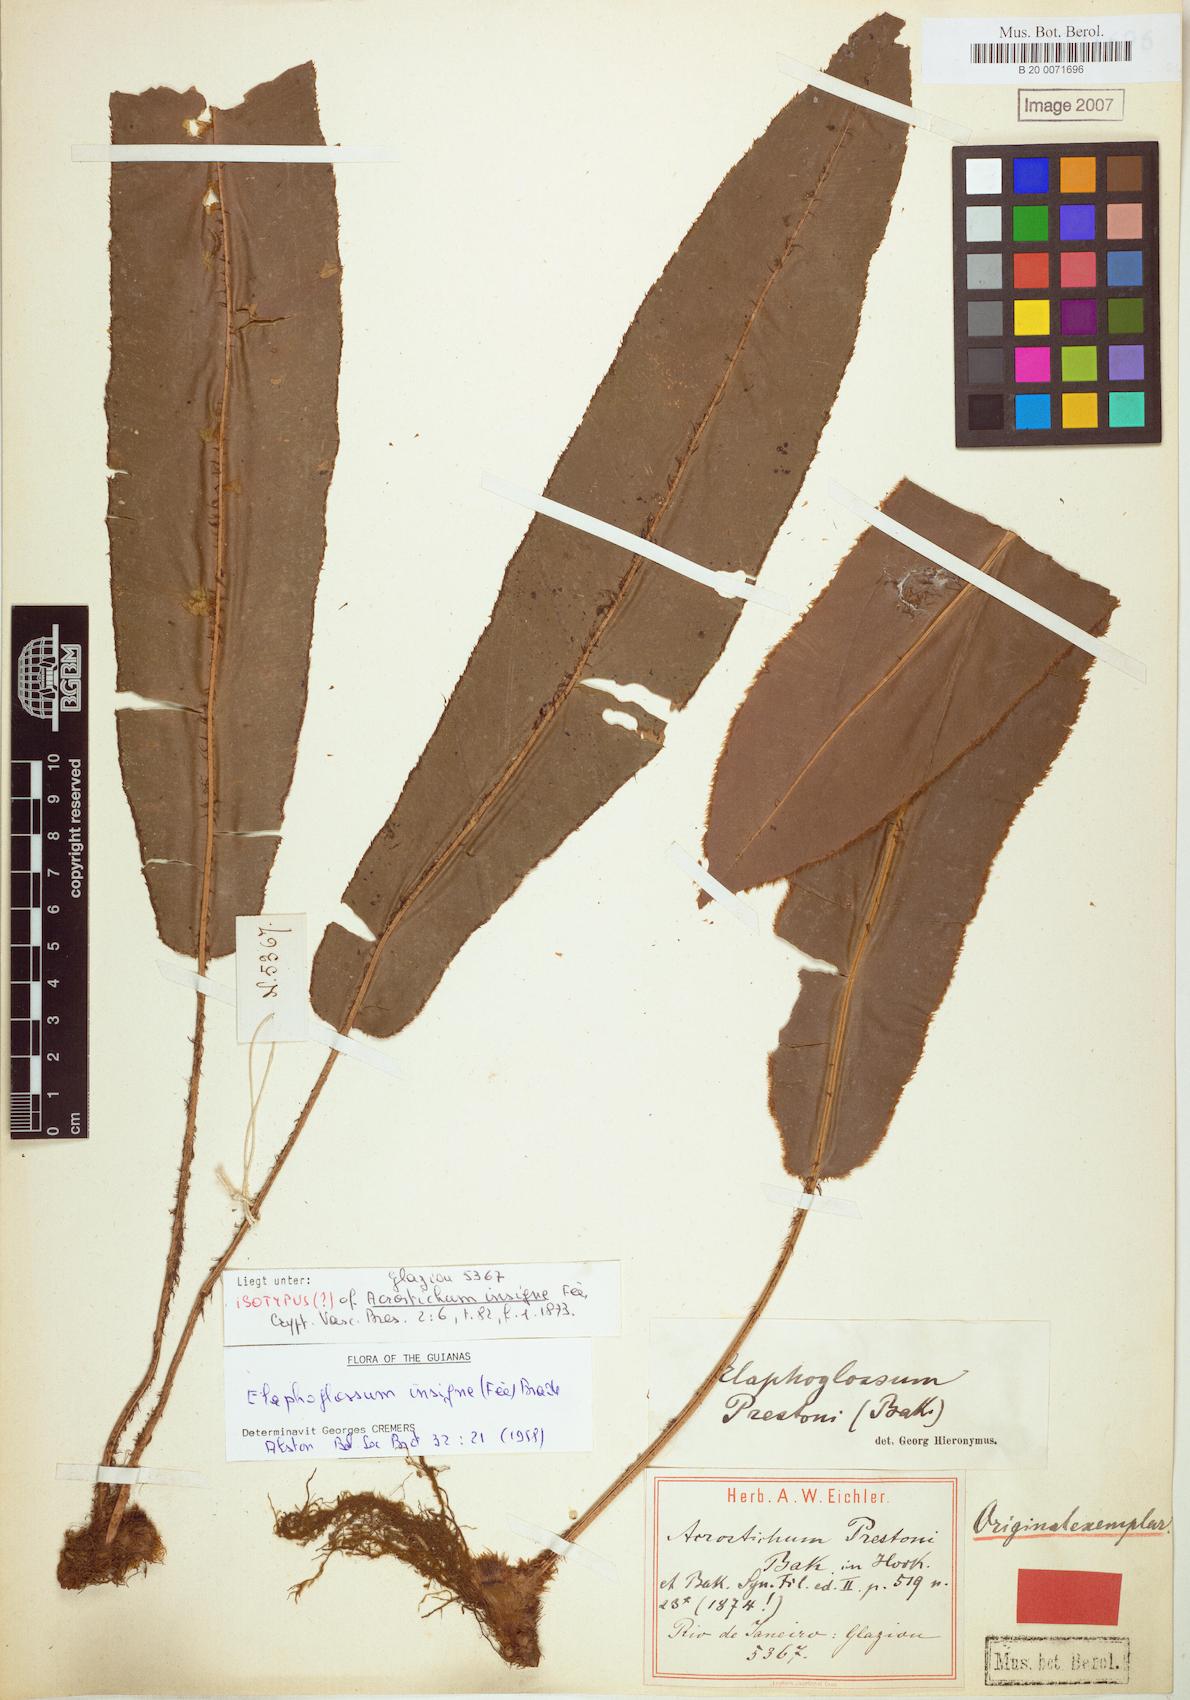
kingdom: Plantae
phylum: Tracheophyta
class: Polypodiopsida
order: Polypodiales
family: Dryopteridaceae
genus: Elaphoglossum
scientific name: Elaphoglossum scolopendrifolium
